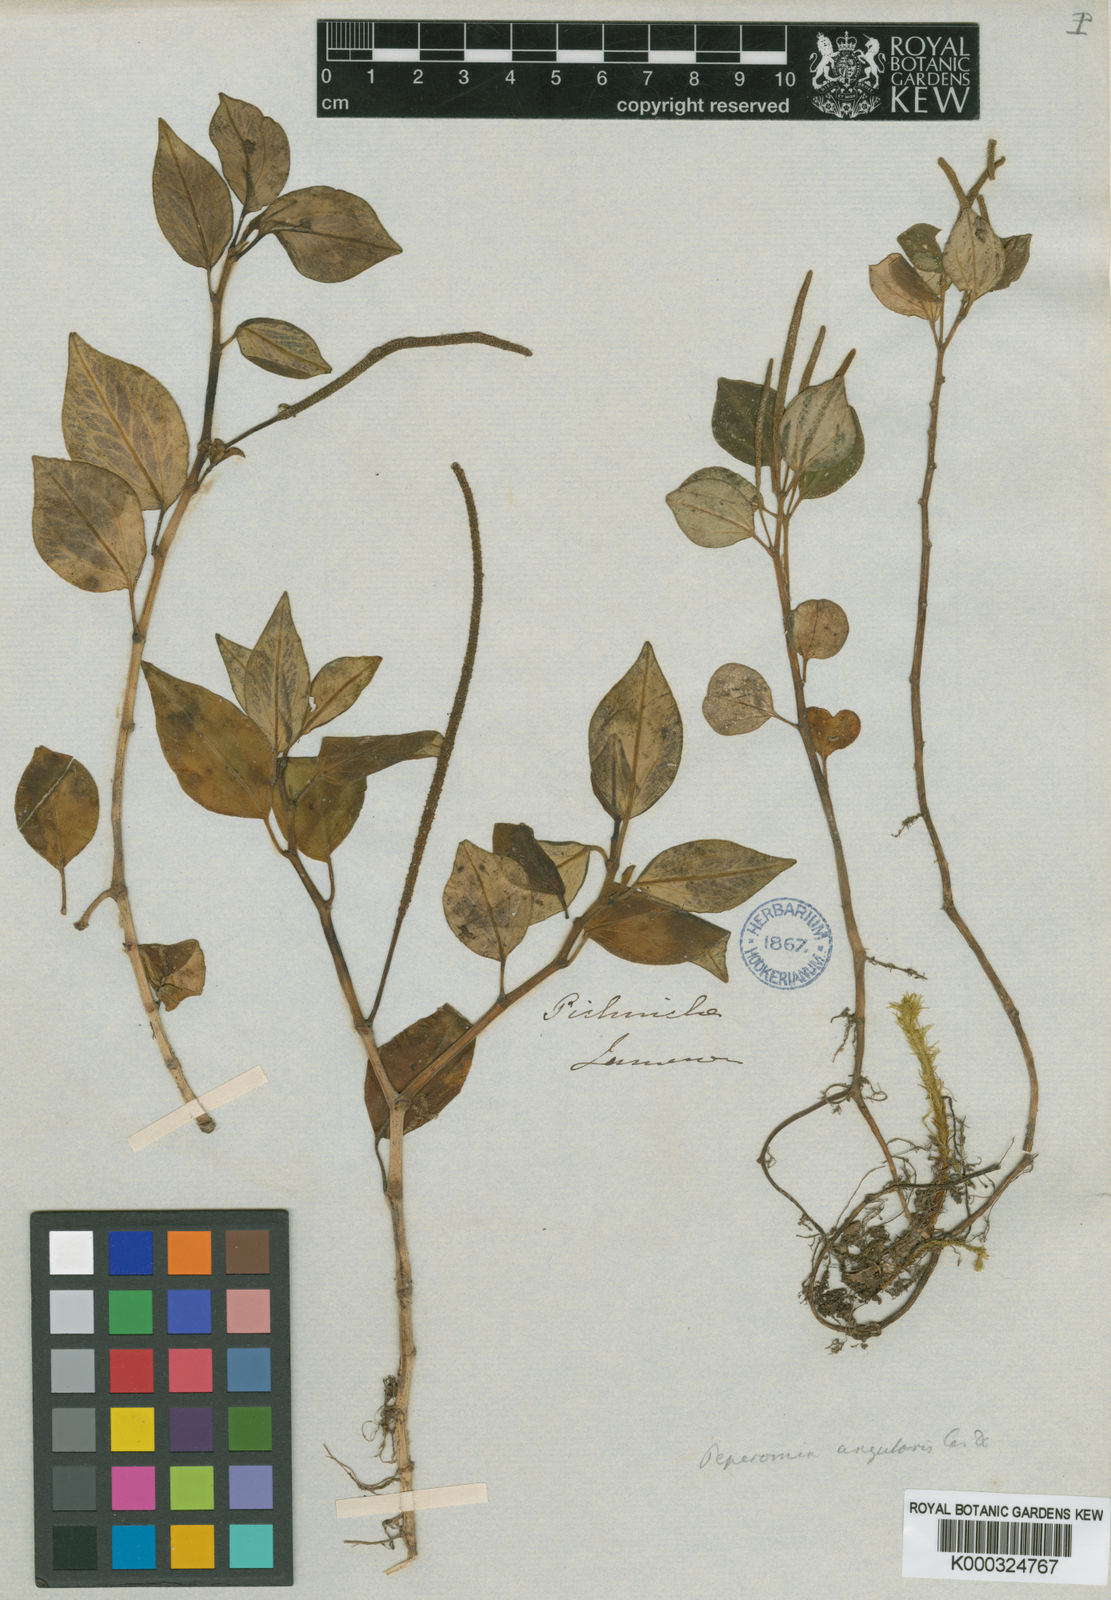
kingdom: Plantae
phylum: Tracheophyta
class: Magnoliopsida
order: Piperales
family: Piperaceae
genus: Peperomia
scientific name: Peperomia angularis
